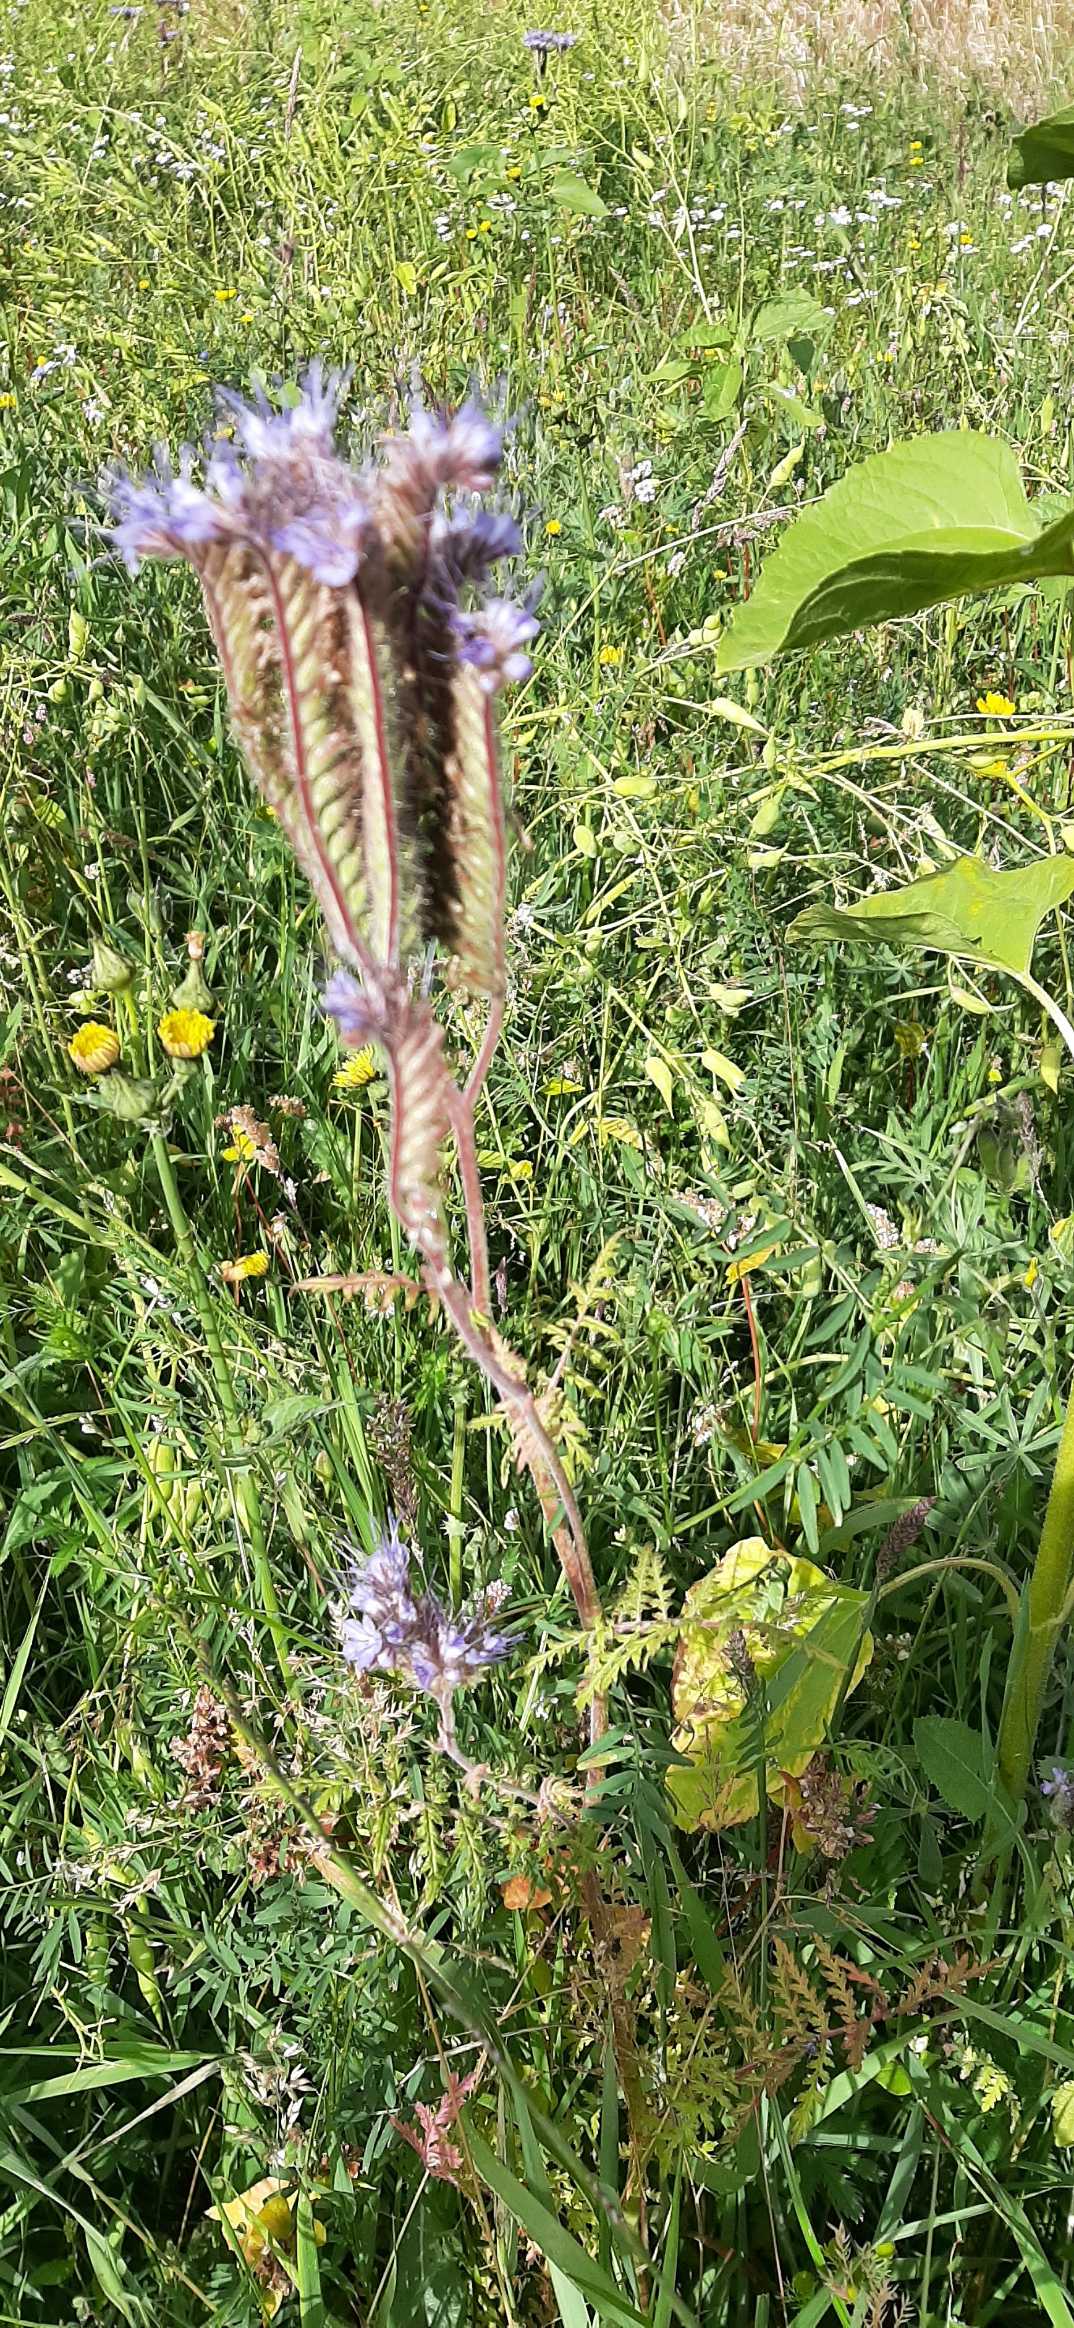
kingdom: Plantae
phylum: Tracheophyta
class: Magnoliopsida
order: Boraginales
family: Hydrophyllaceae
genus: Phacelia
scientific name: Phacelia tanacetifolia
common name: Honningurt
